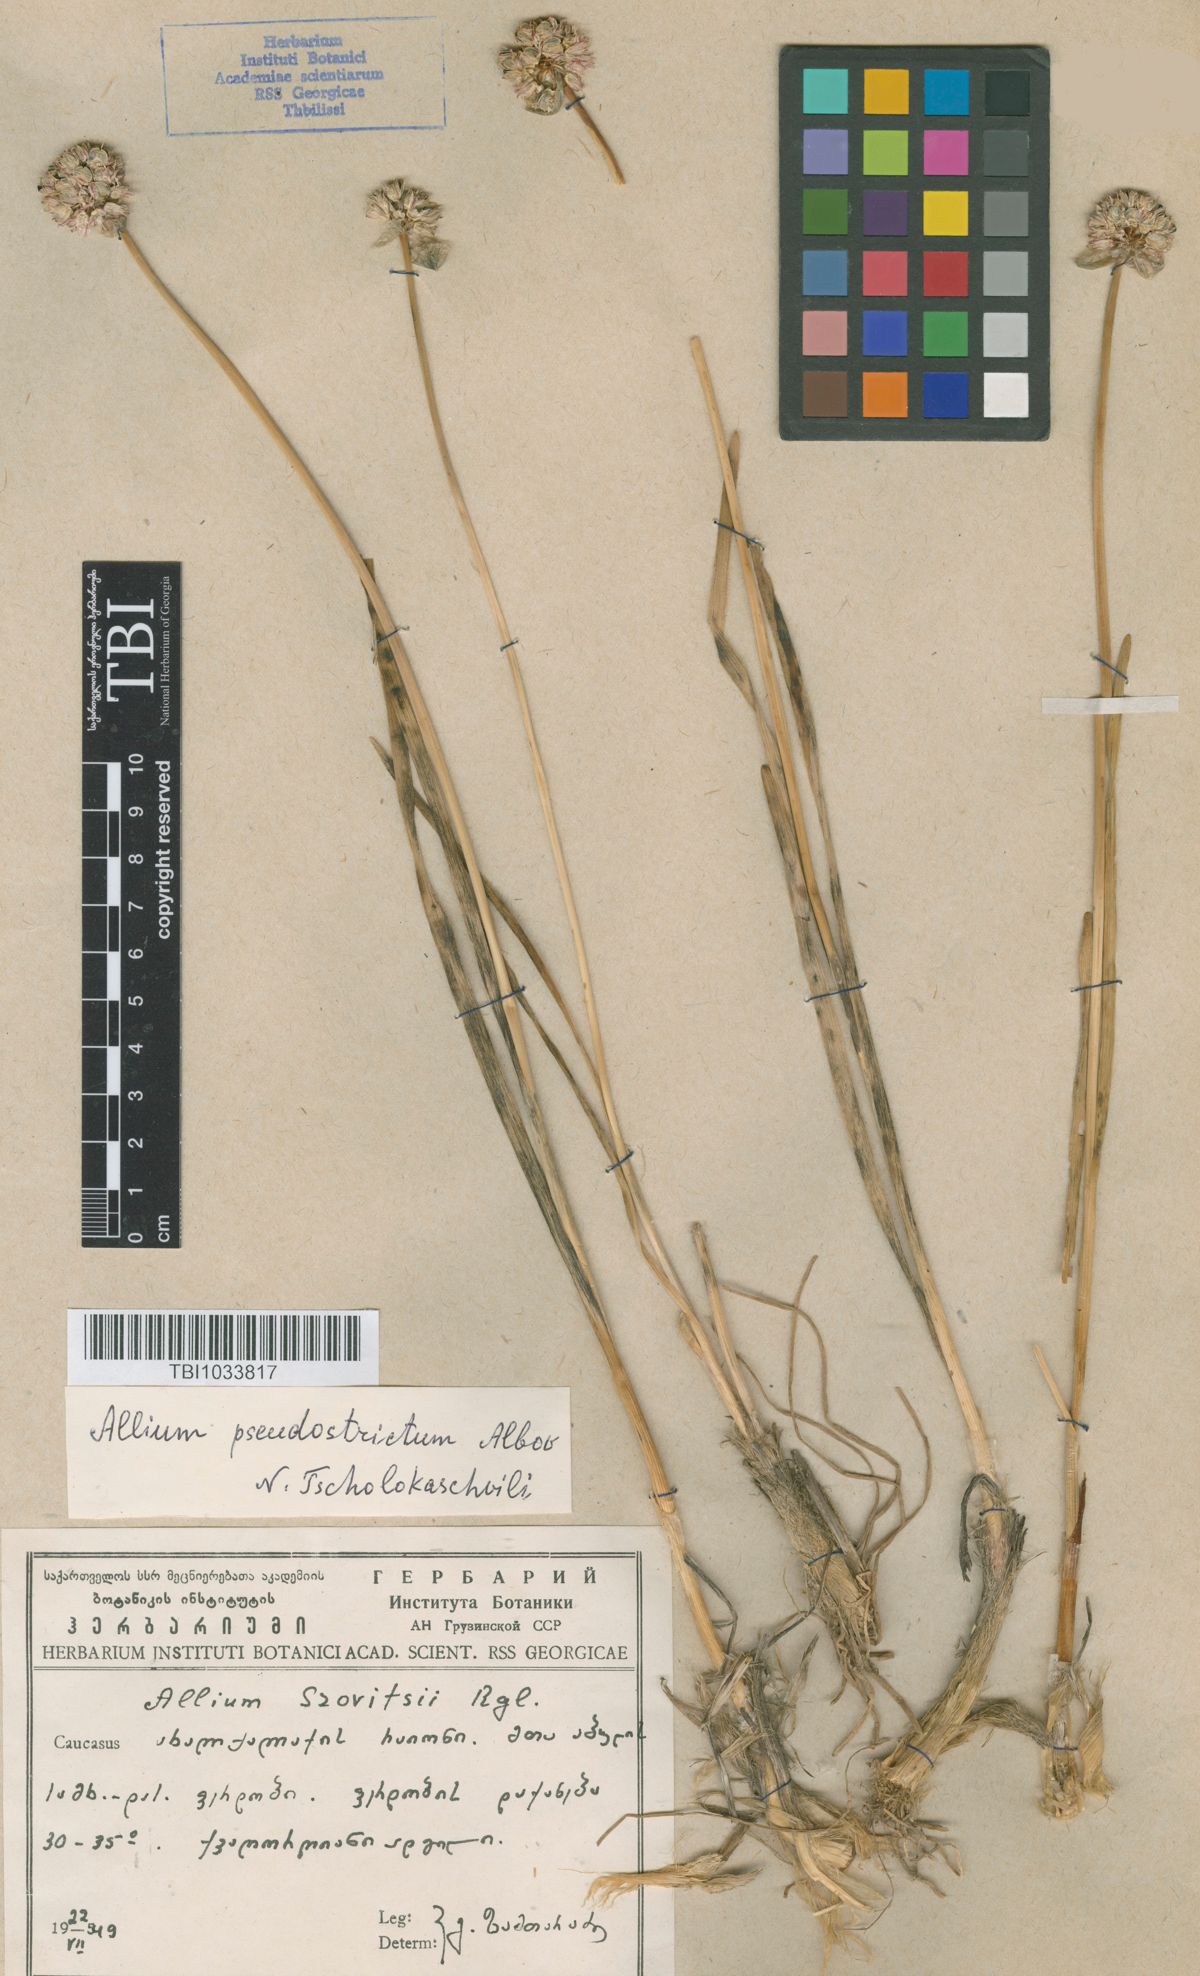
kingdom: Plantae
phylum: Tracheophyta
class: Liliopsida
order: Asparagales
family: Amaryllidaceae
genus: Allium
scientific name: Allium pseudostrictum
